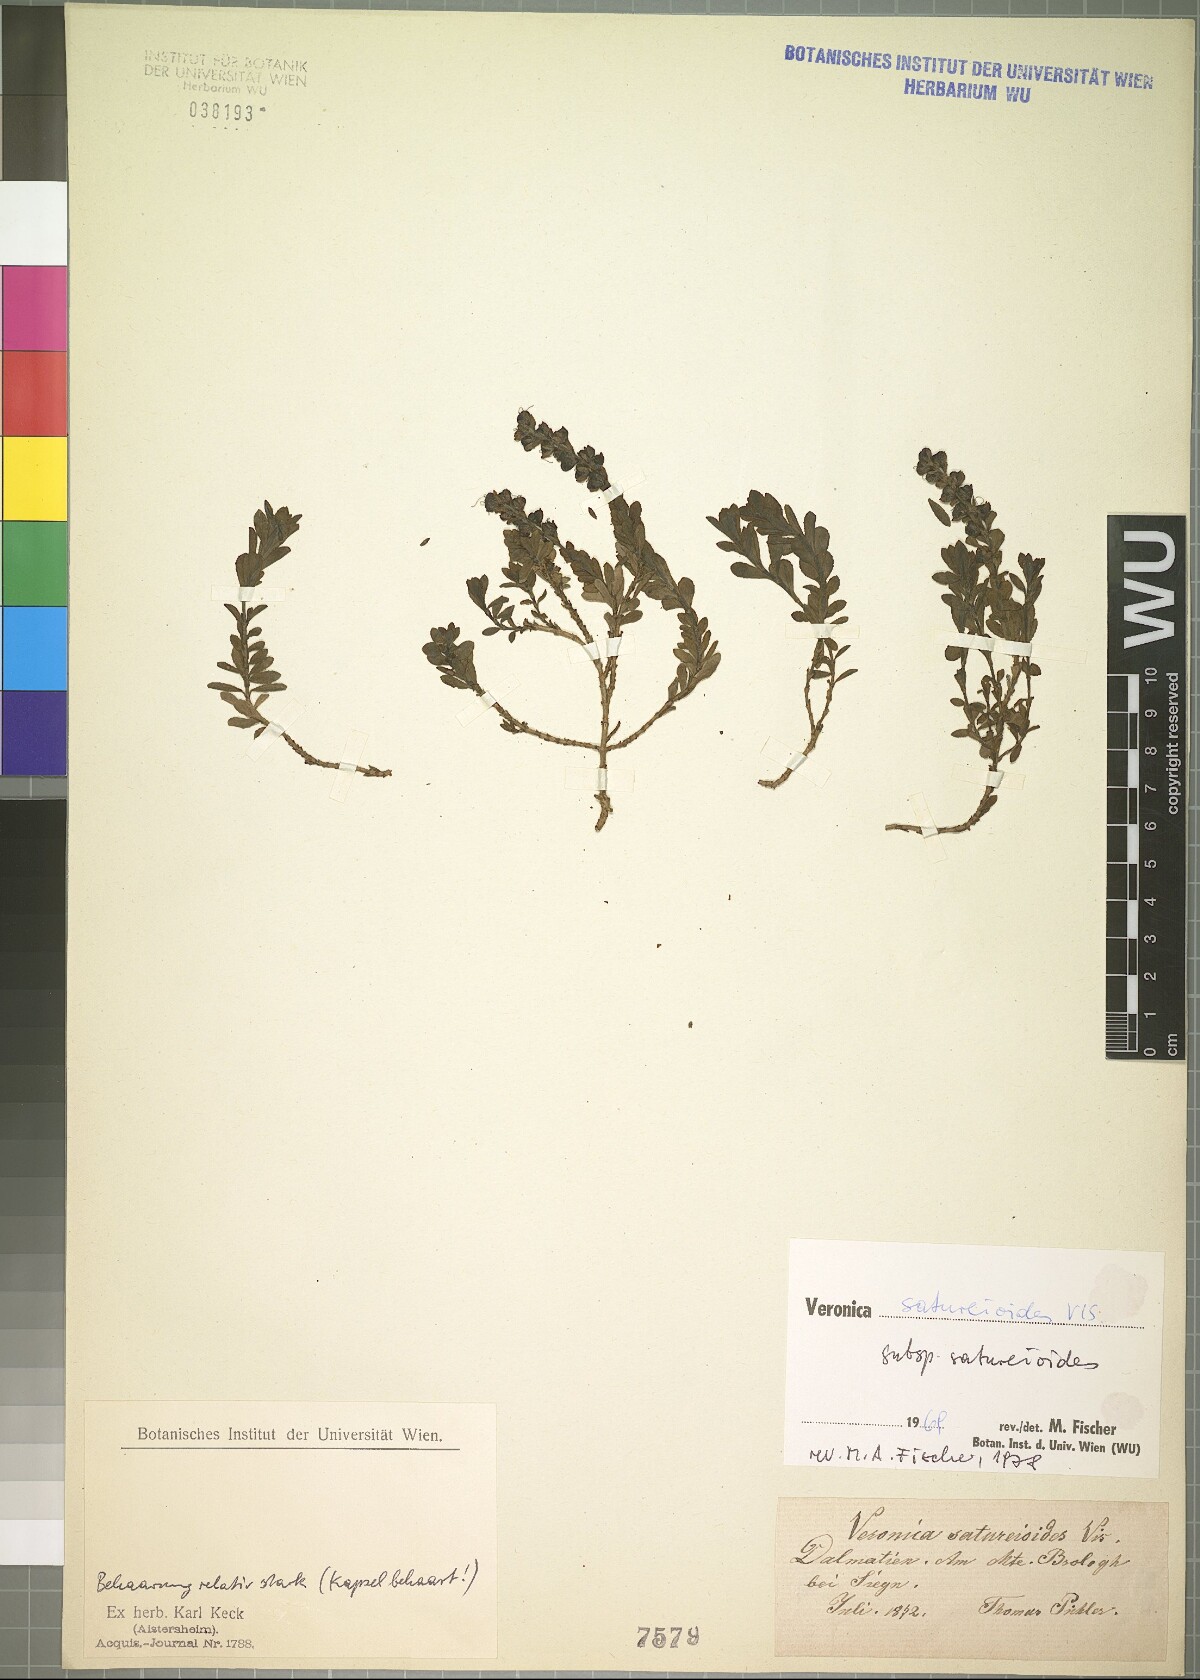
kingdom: Plantae
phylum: Tracheophyta
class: Magnoliopsida
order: Lamiales
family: Plantaginaceae
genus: Veronica
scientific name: Veronica saturejoides
